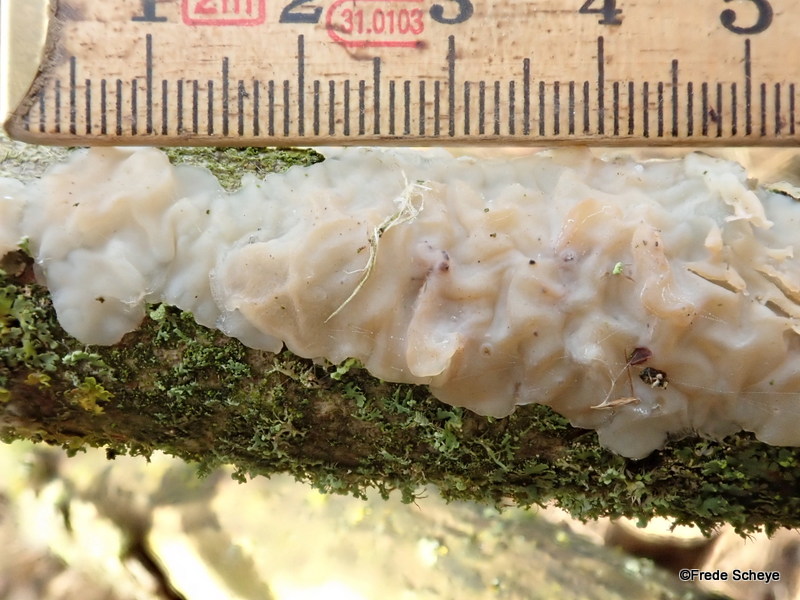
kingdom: Fungi
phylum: Basidiomycota
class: Agaricomycetes
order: Auriculariales
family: Auriculariaceae
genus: Exidia
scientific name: Exidia thuretiana
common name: hvidlig bævretop
